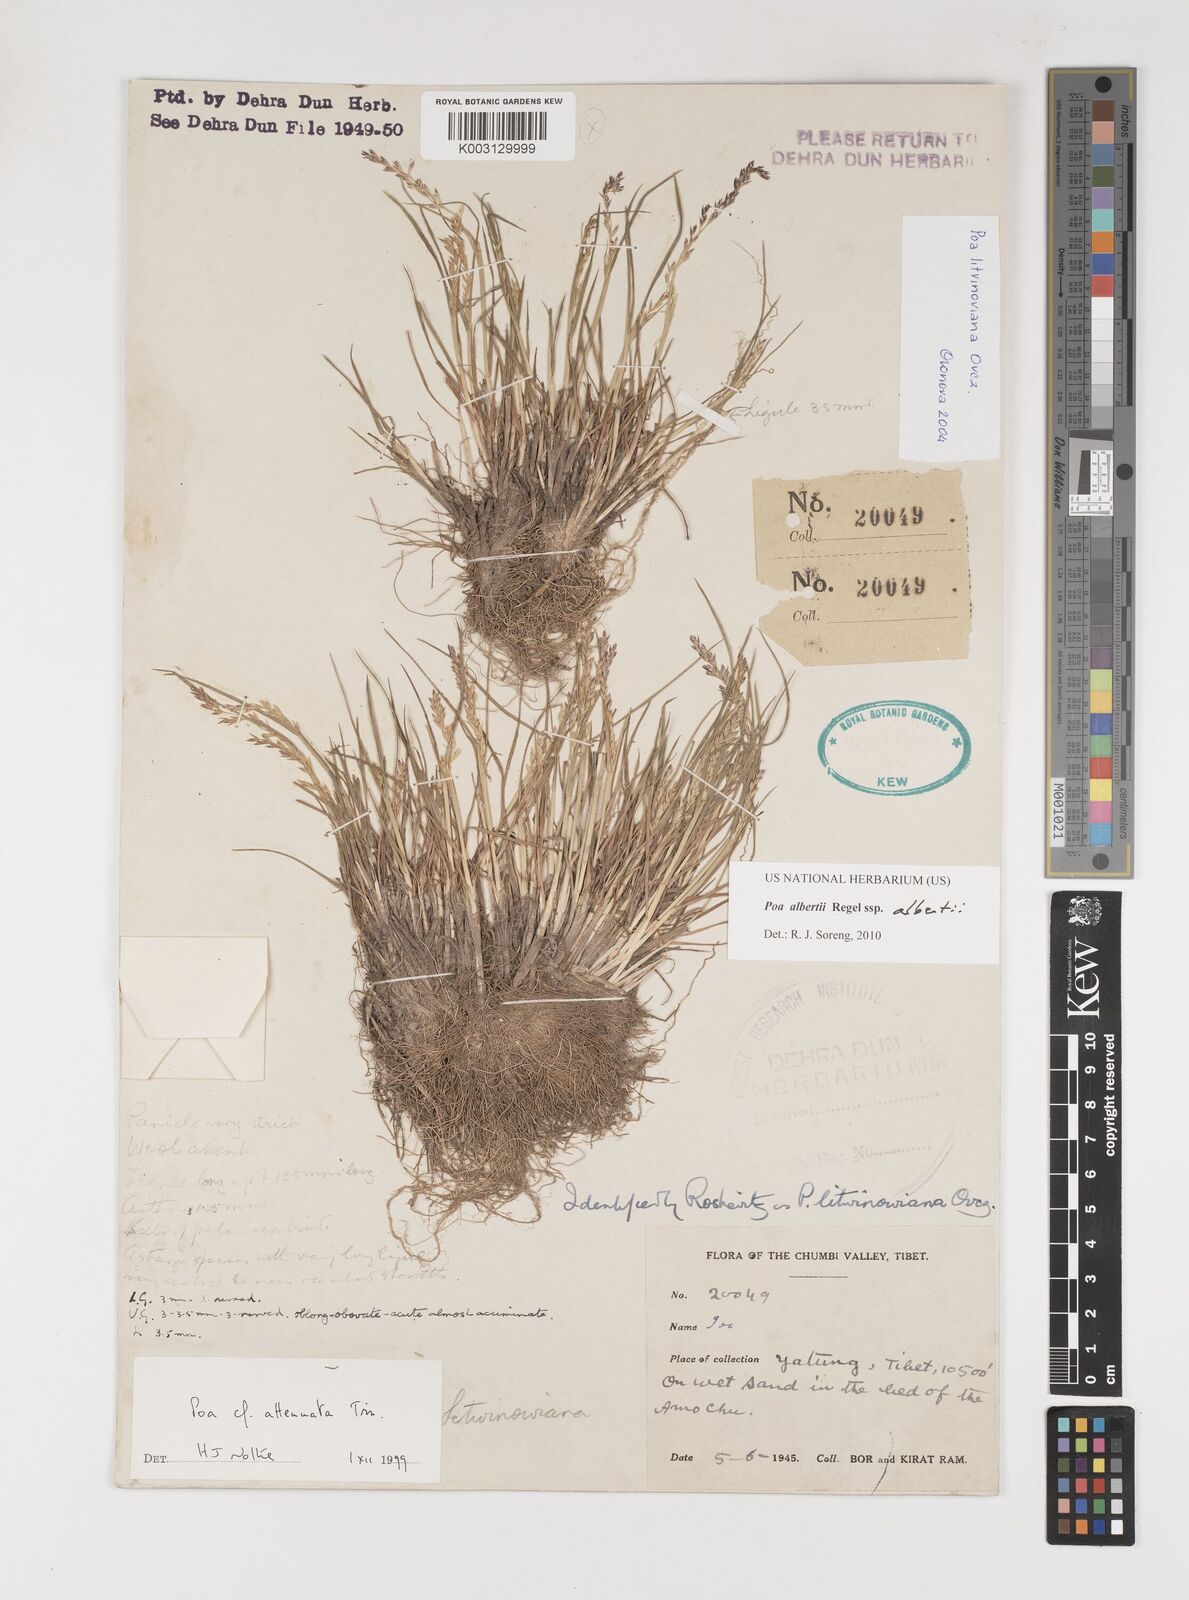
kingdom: Plantae
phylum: Tracheophyta
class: Liliopsida
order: Poales
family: Poaceae
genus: Poa
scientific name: Poa alberti
